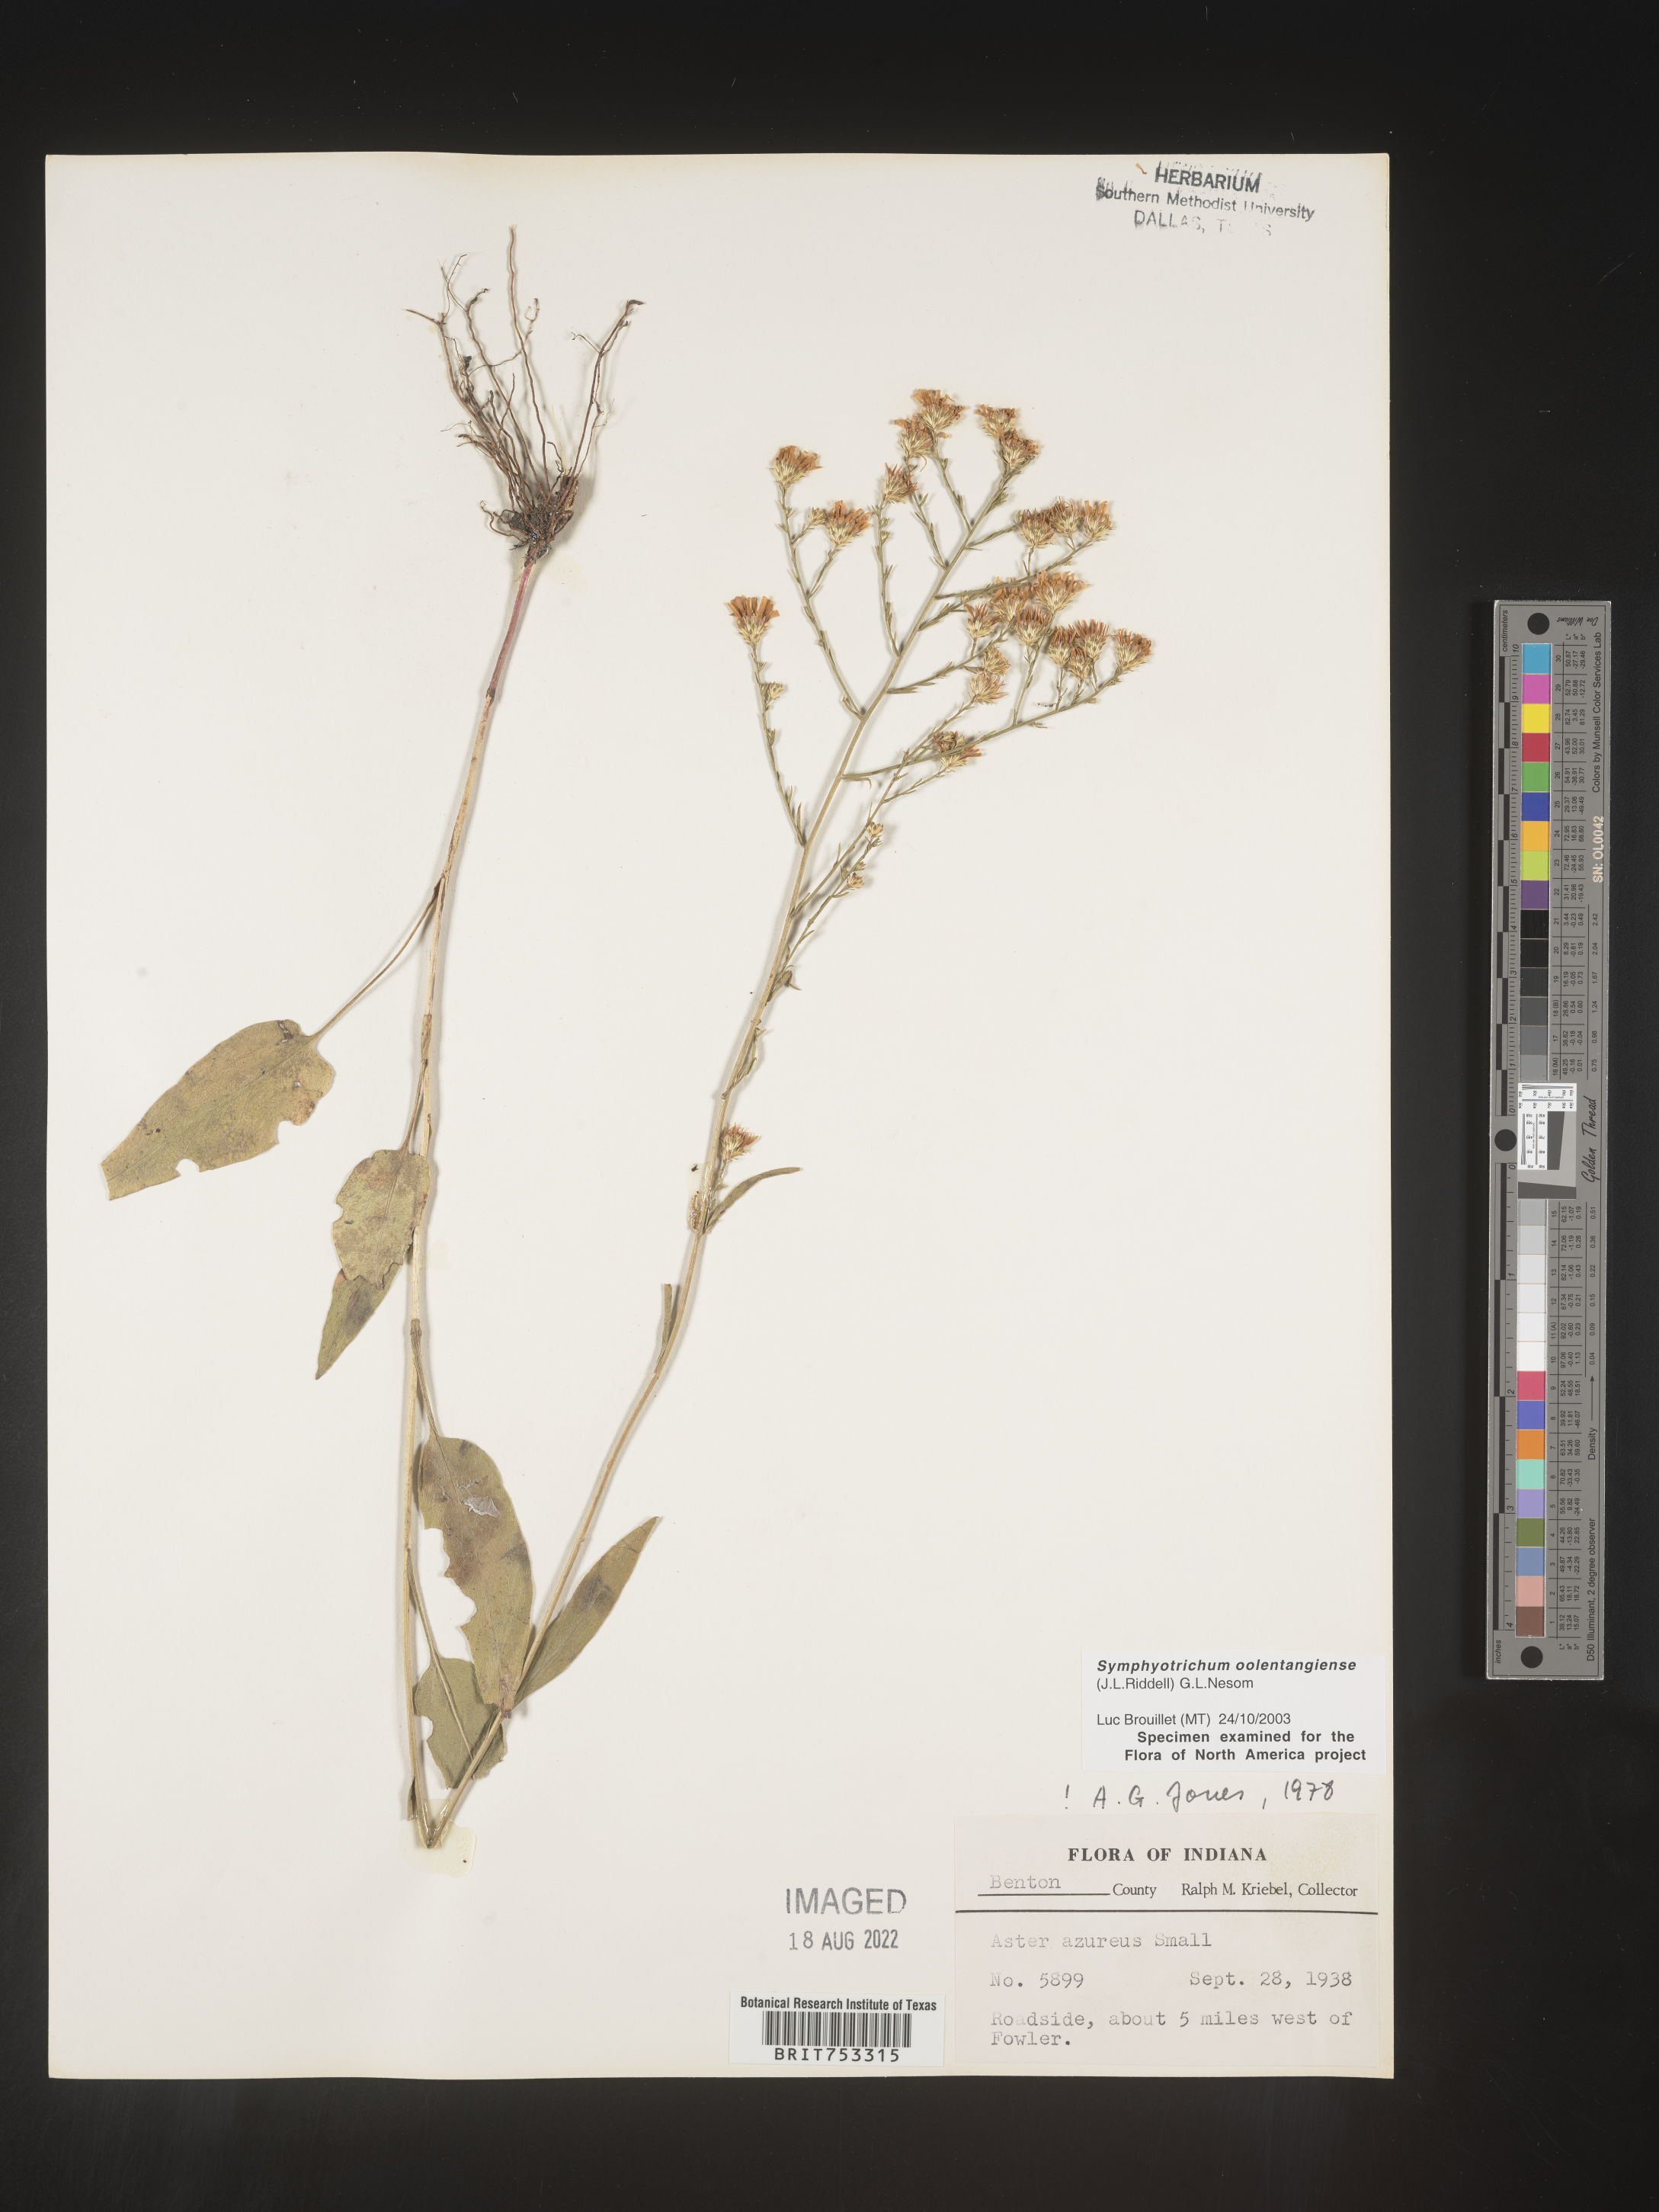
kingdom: Plantae
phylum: Tracheophyta
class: Magnoliopsida
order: Asterales
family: Asteraceae
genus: Symphyotrichum
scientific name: Symphyotrichum oolentangiense
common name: Azure aster
